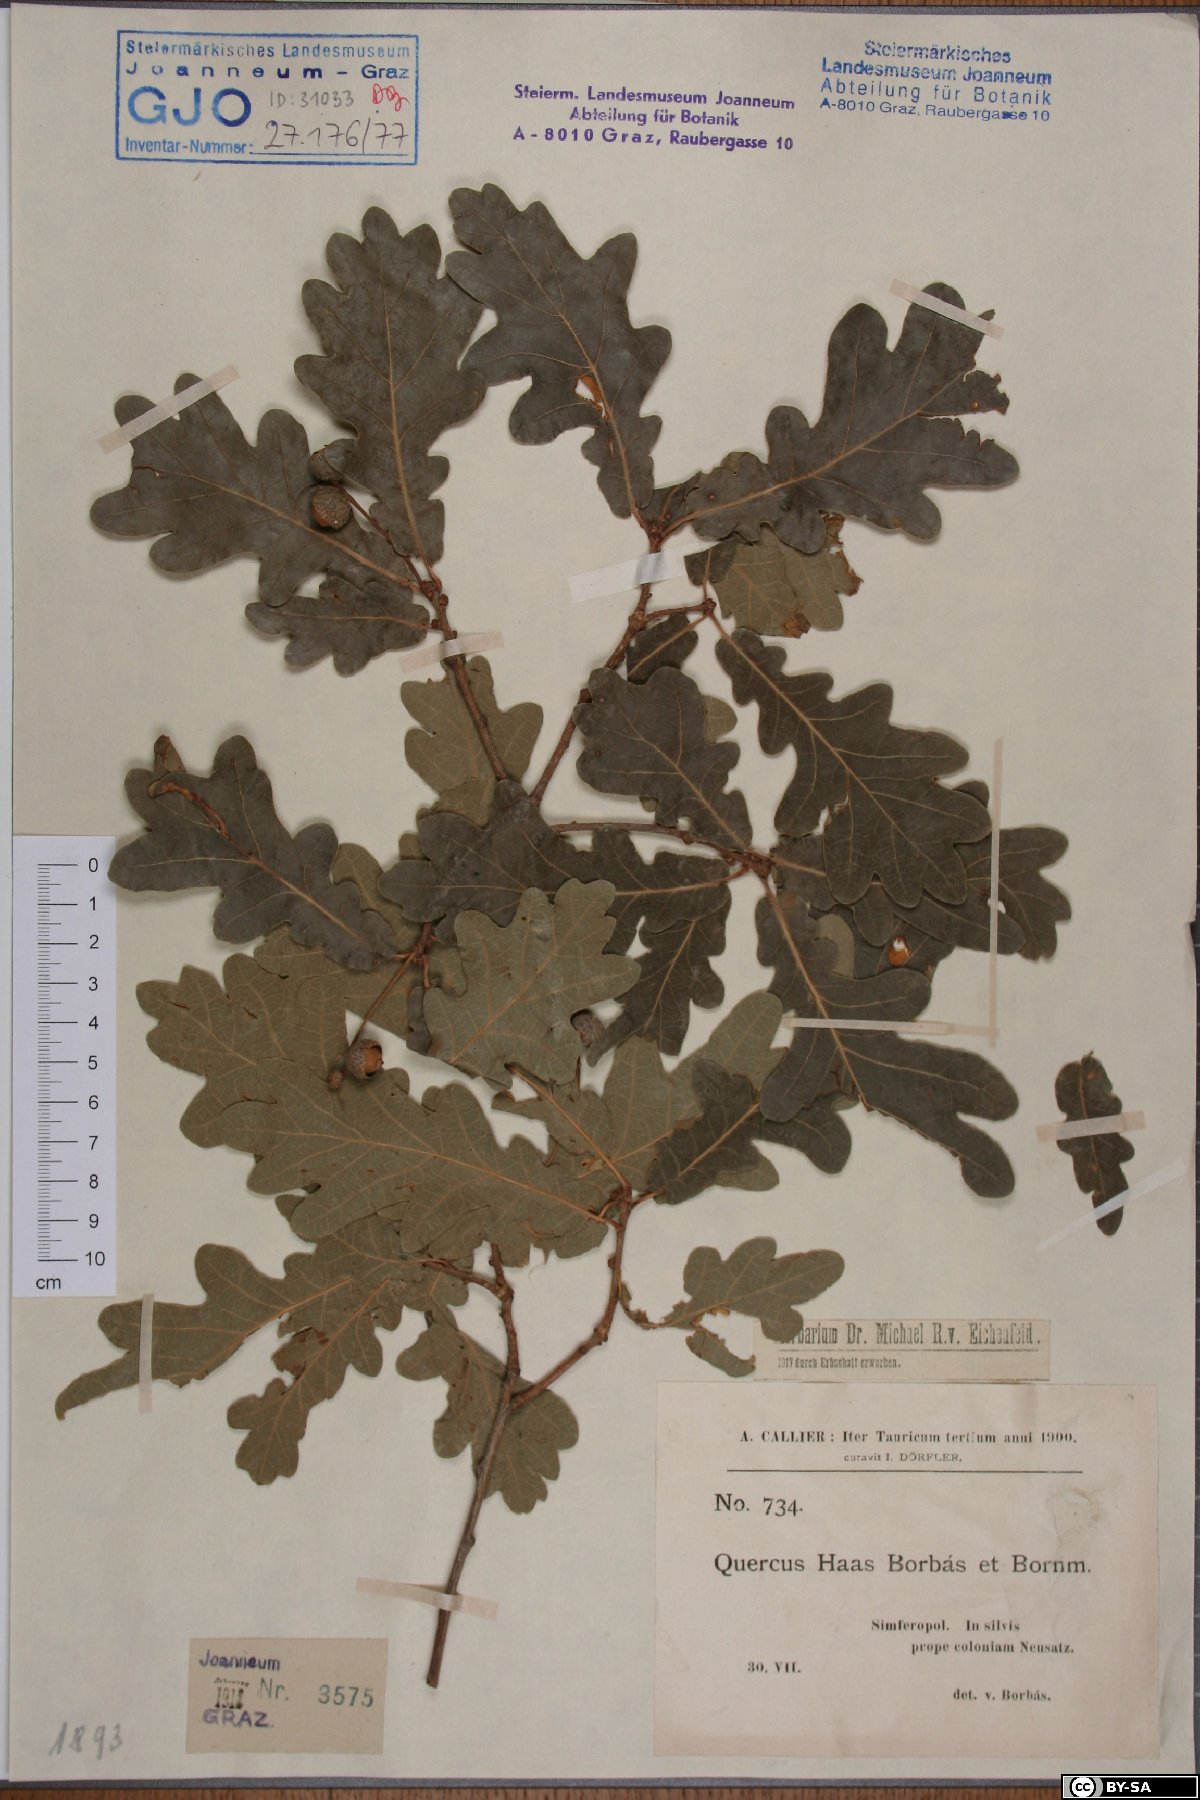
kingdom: Plantae
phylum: Tracheophyta
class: Magnoliopsida
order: Fagales
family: Fagaceae
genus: Quercus
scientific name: Quercus robur
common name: Pedunculate oak
